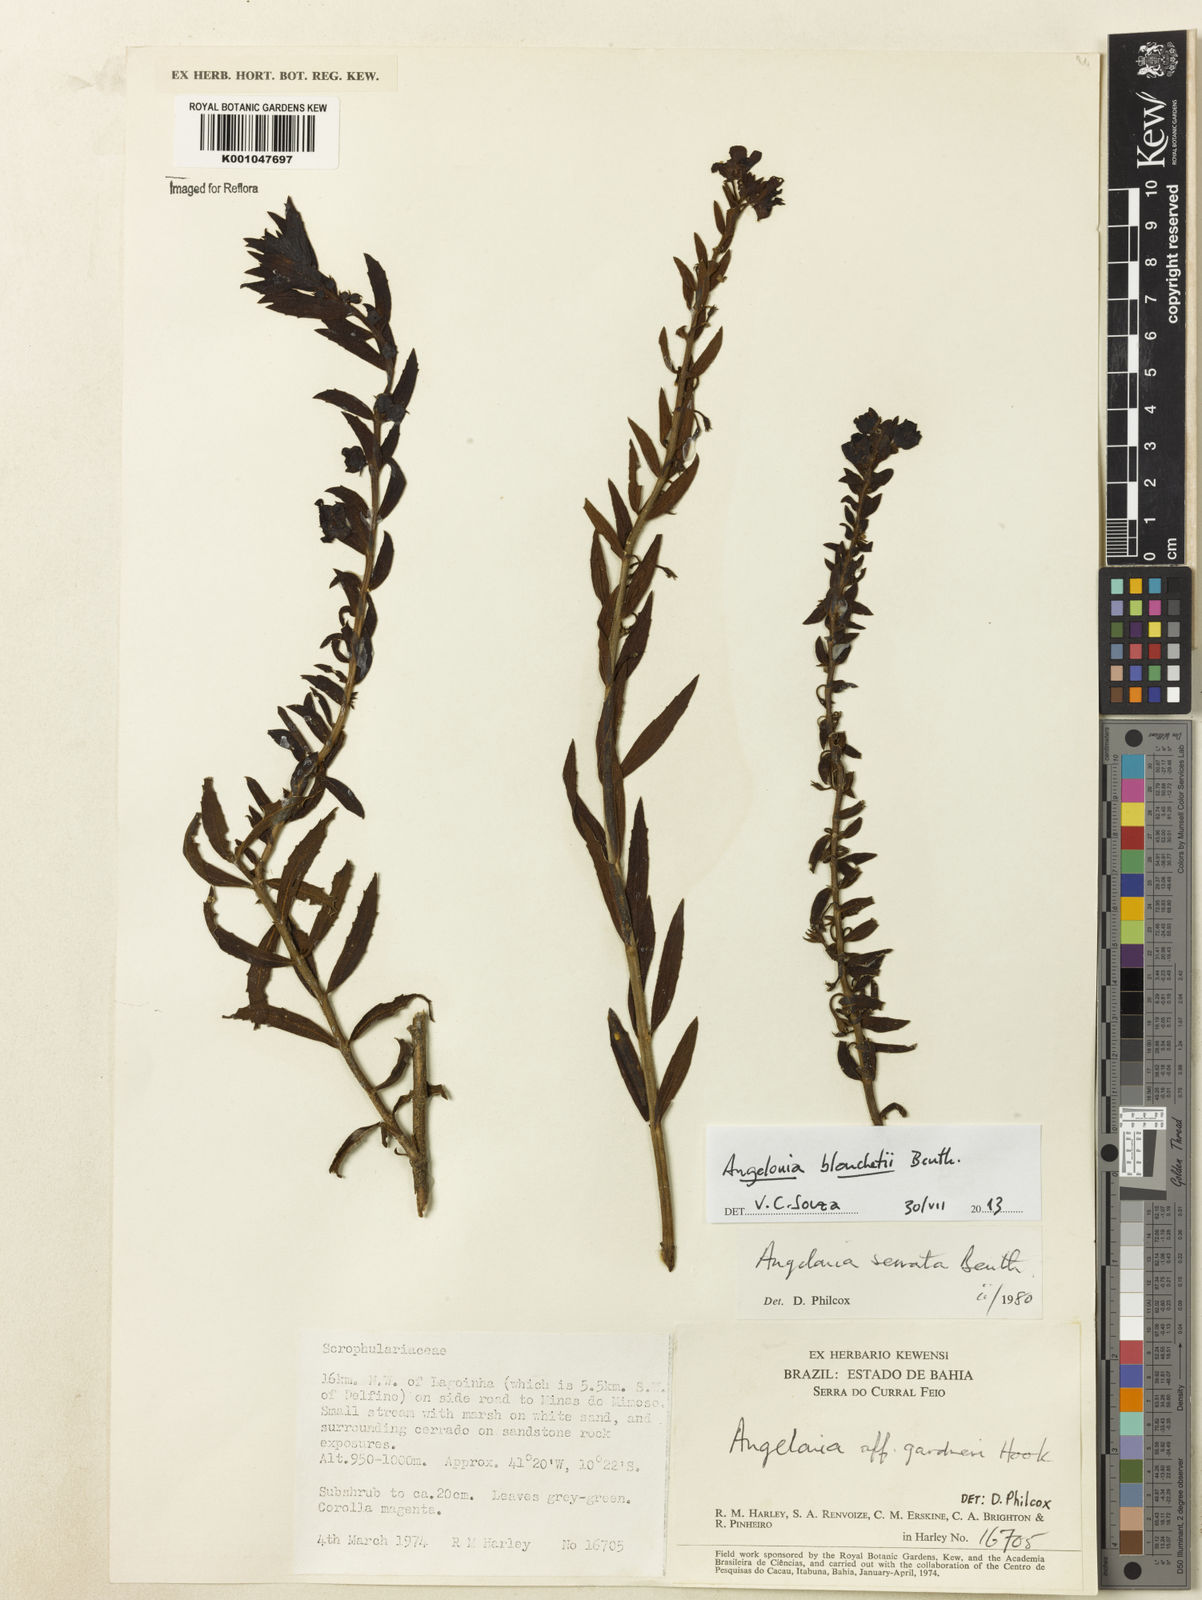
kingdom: Plantae
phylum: Tracheophyta
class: Magnoliopsida
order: Lamiales
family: Plantaginaceae
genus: Angelonia
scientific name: Angelonia blanchetii
